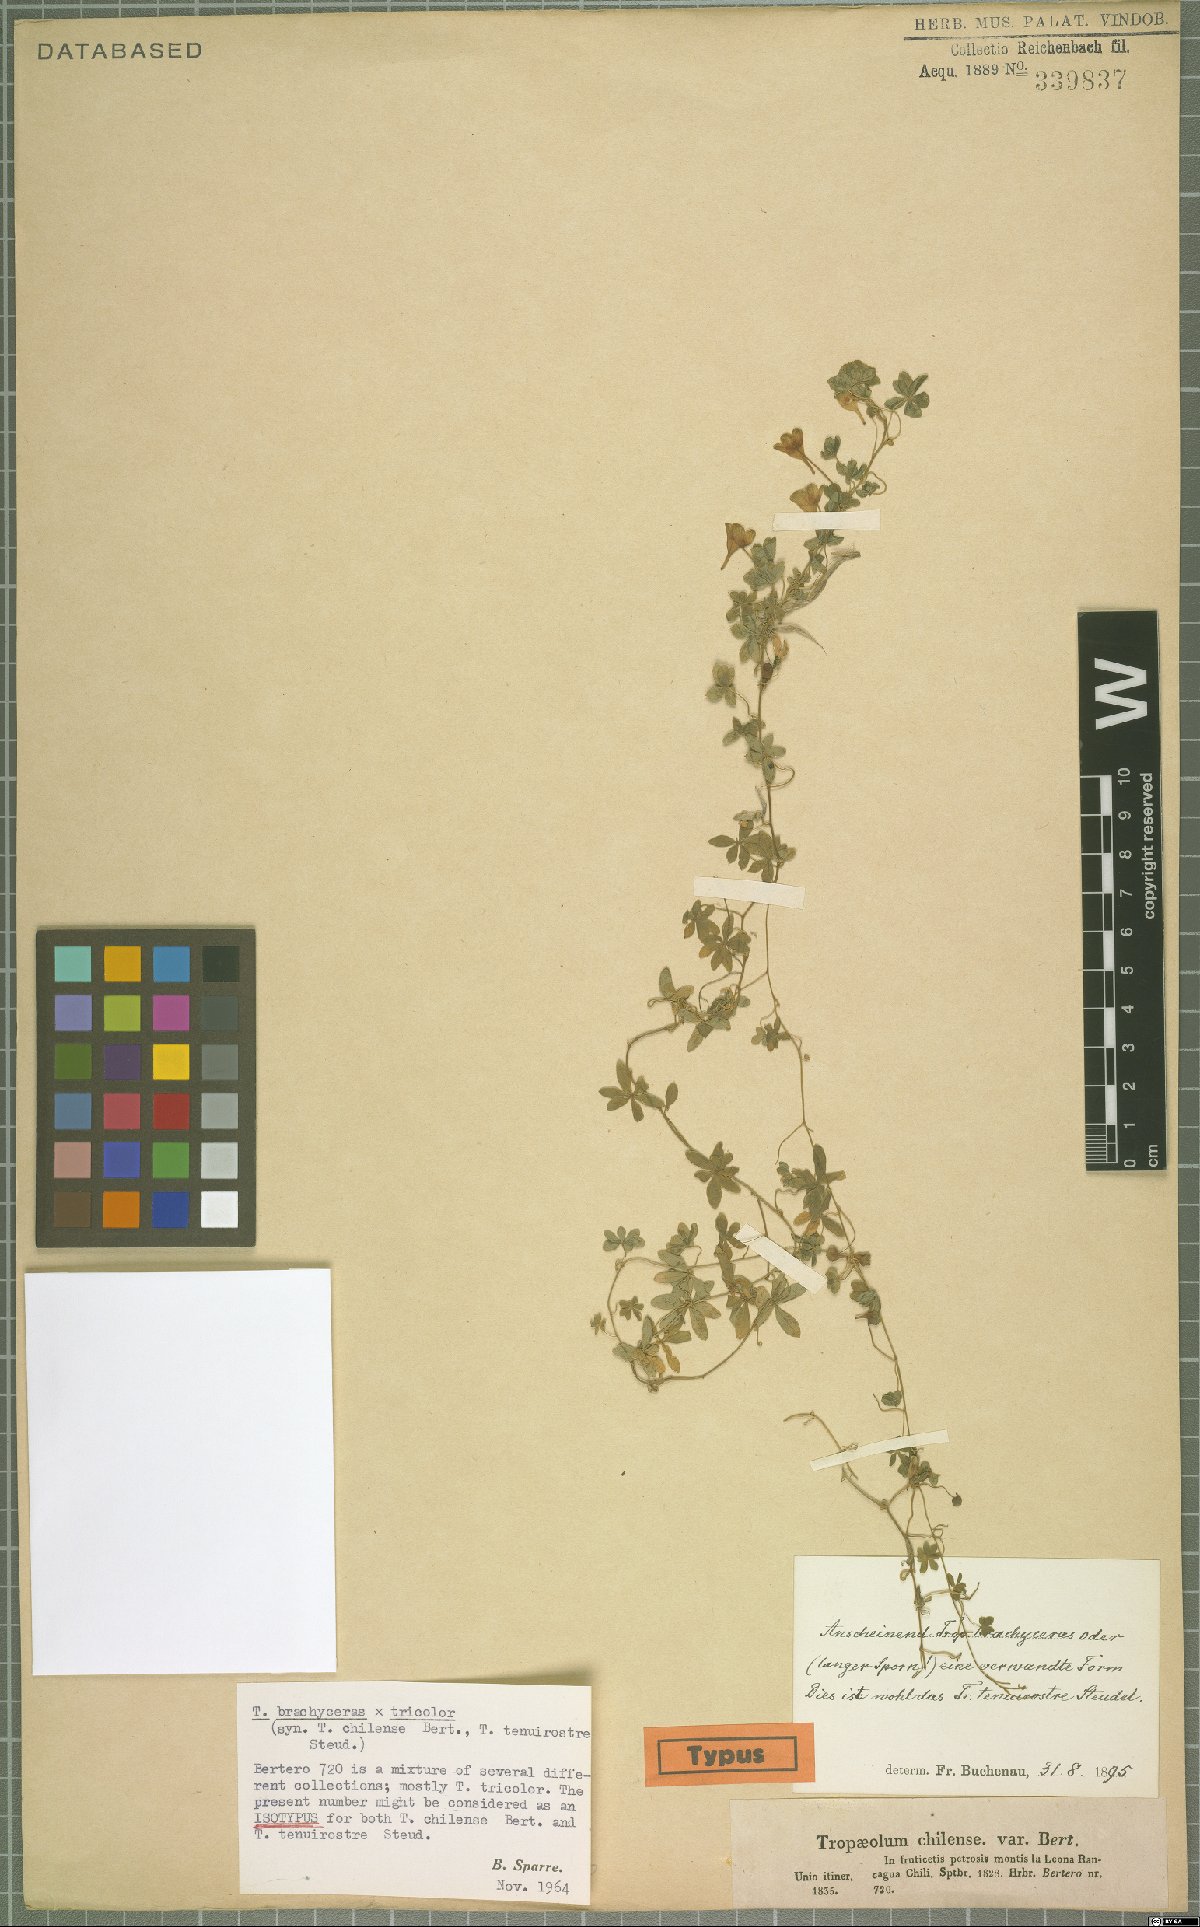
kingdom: Plantae
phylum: Tracheophyta
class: Magnoliopsida
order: Brassicales
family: Tropaeolaceae
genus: Tropaeolum
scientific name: Tropaeolum tenuirostre
